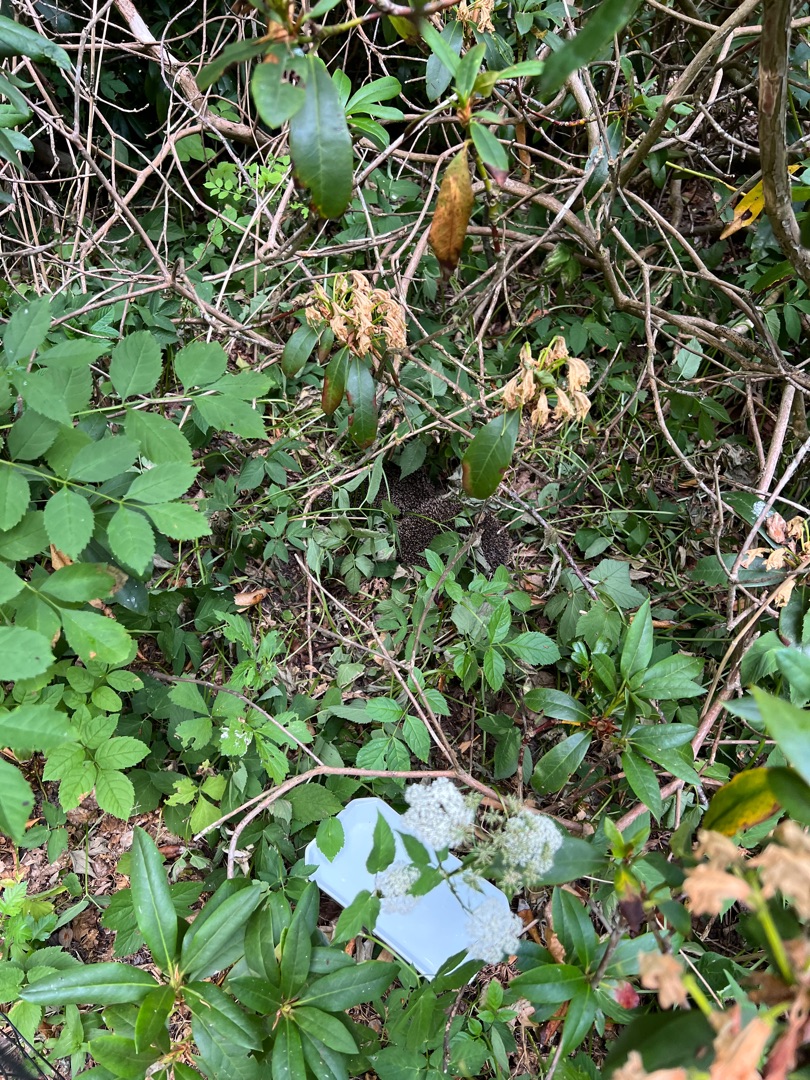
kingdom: Animalia
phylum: Chordata
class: Mammalia
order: Erinaceomorpha
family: Erinaceidae
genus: Erinaceus
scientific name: Erinaceus europaeus
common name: Pindsvin
